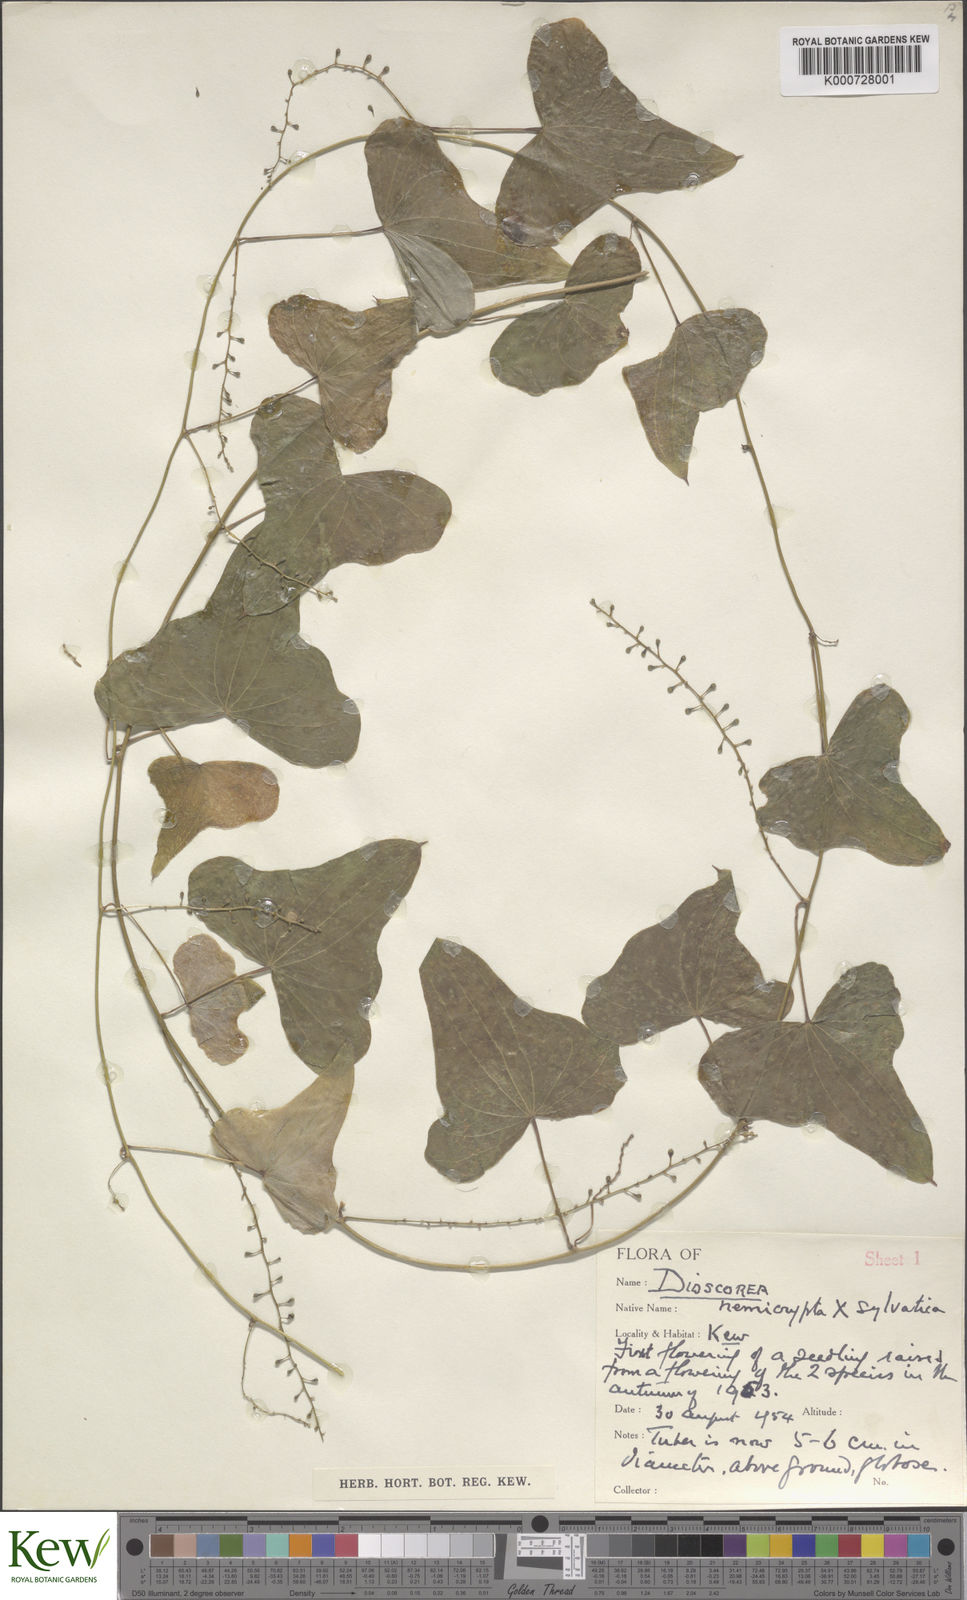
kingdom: Plantae
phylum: Tracheophyta
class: Liliopsida
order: Dioscoreales
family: Dioscoreaceae
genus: Dioscorea
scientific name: Dioscorea hemicrypta
